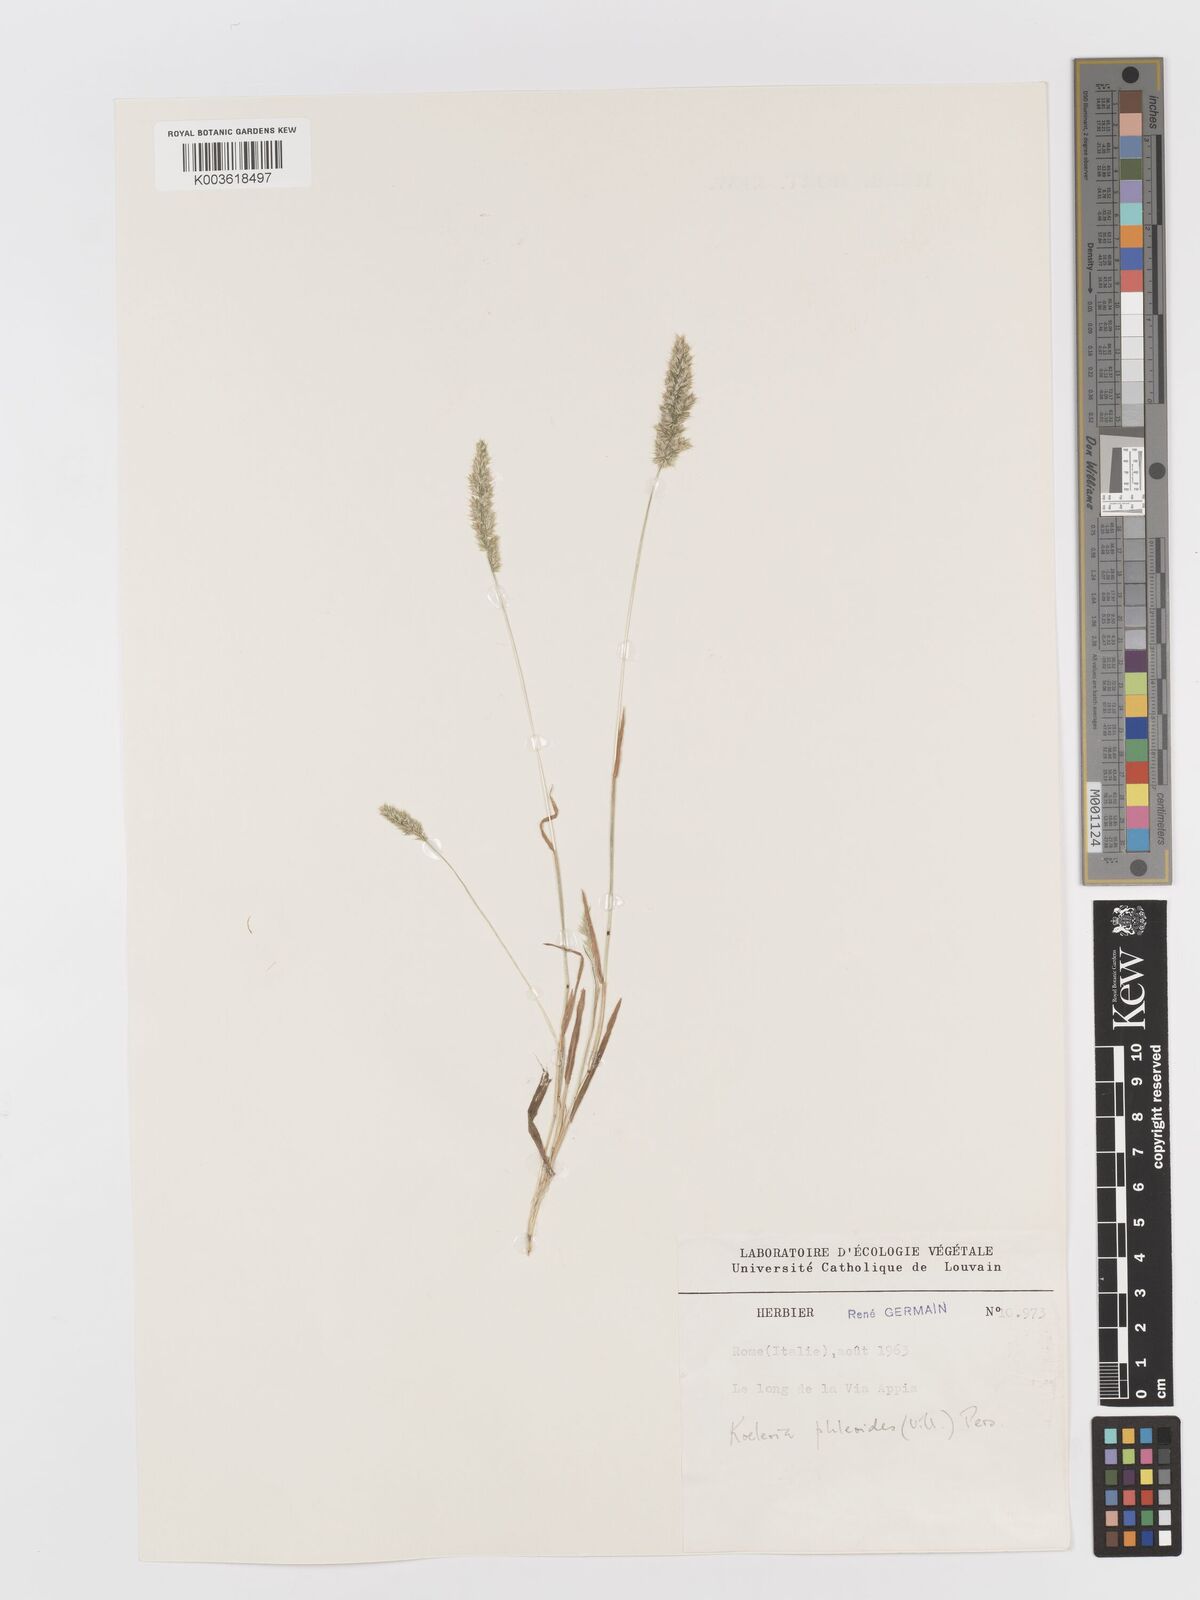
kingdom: Plantae
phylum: Tracheophyta
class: Liliopsida
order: Poales
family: Poaceae
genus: Rostraria
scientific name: Rostraria cristata
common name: Mediterranean hair-grass
